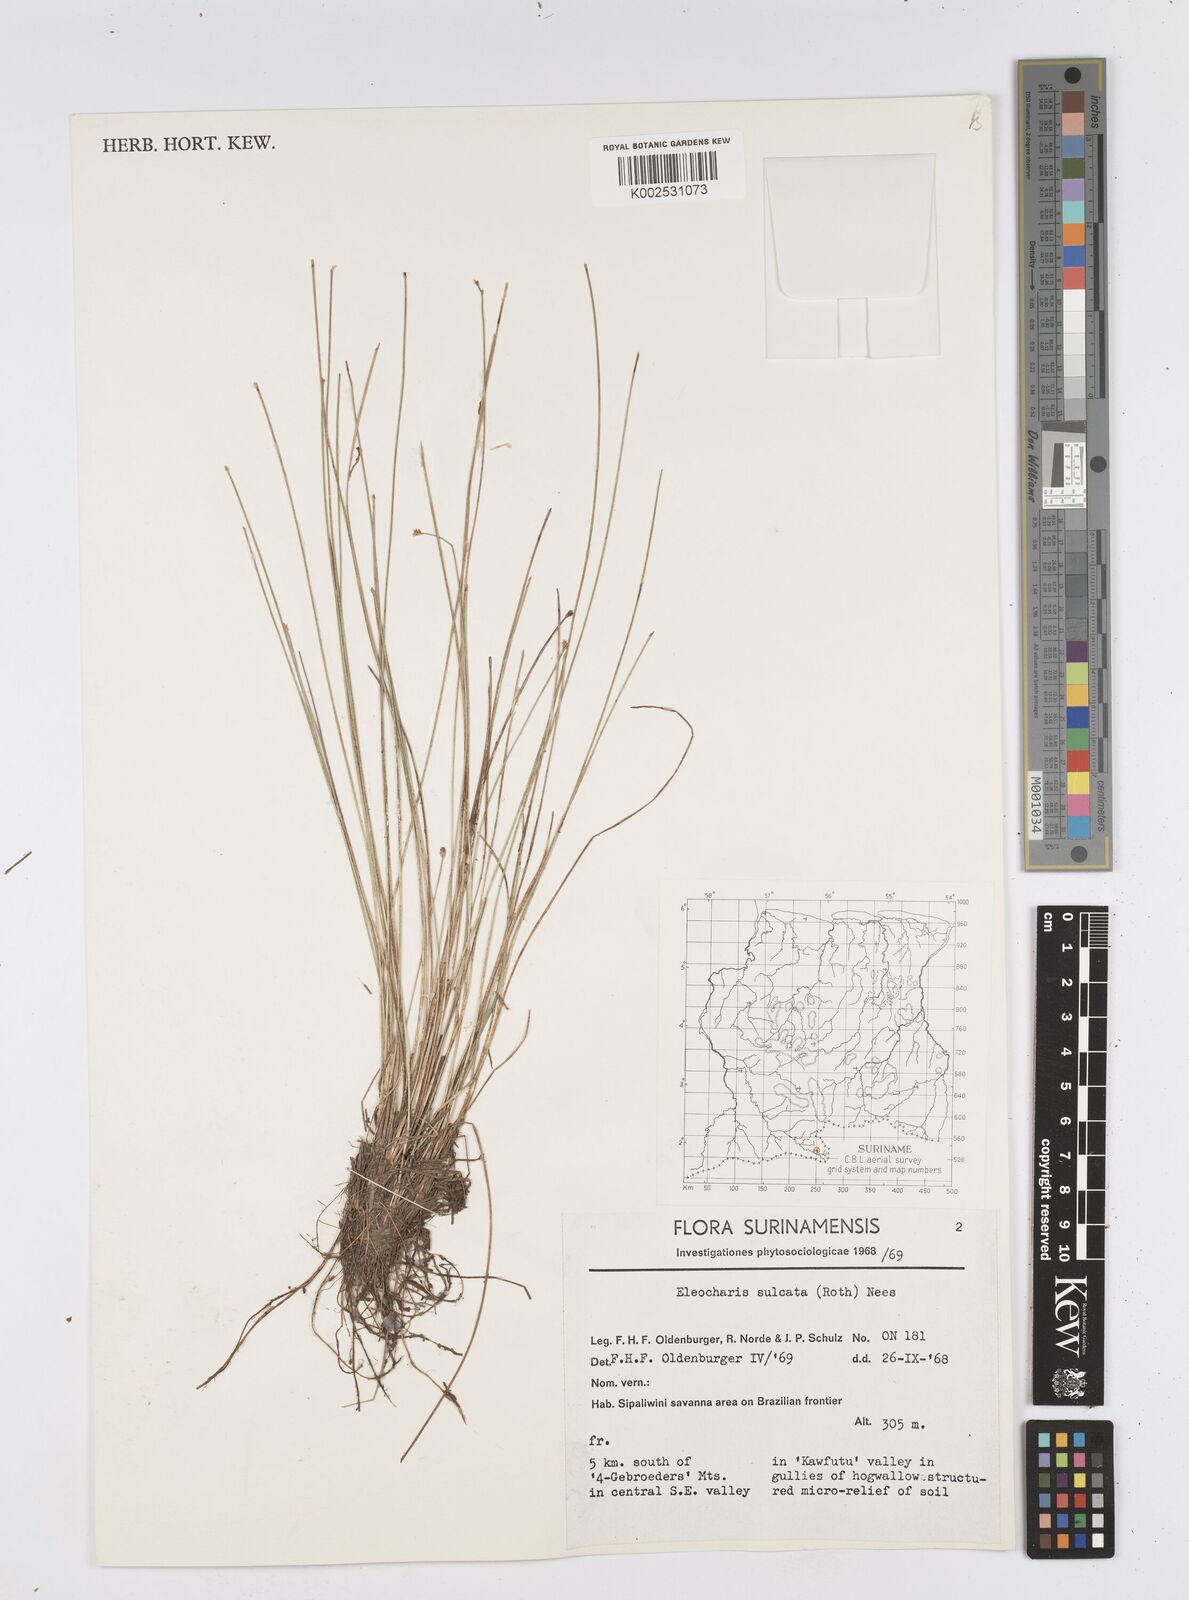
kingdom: Plantae
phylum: Tracheophyta
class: Liliopsida
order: Poales
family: Cyperaceae
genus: Eleocharis
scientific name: Eleocharis filiculmis
